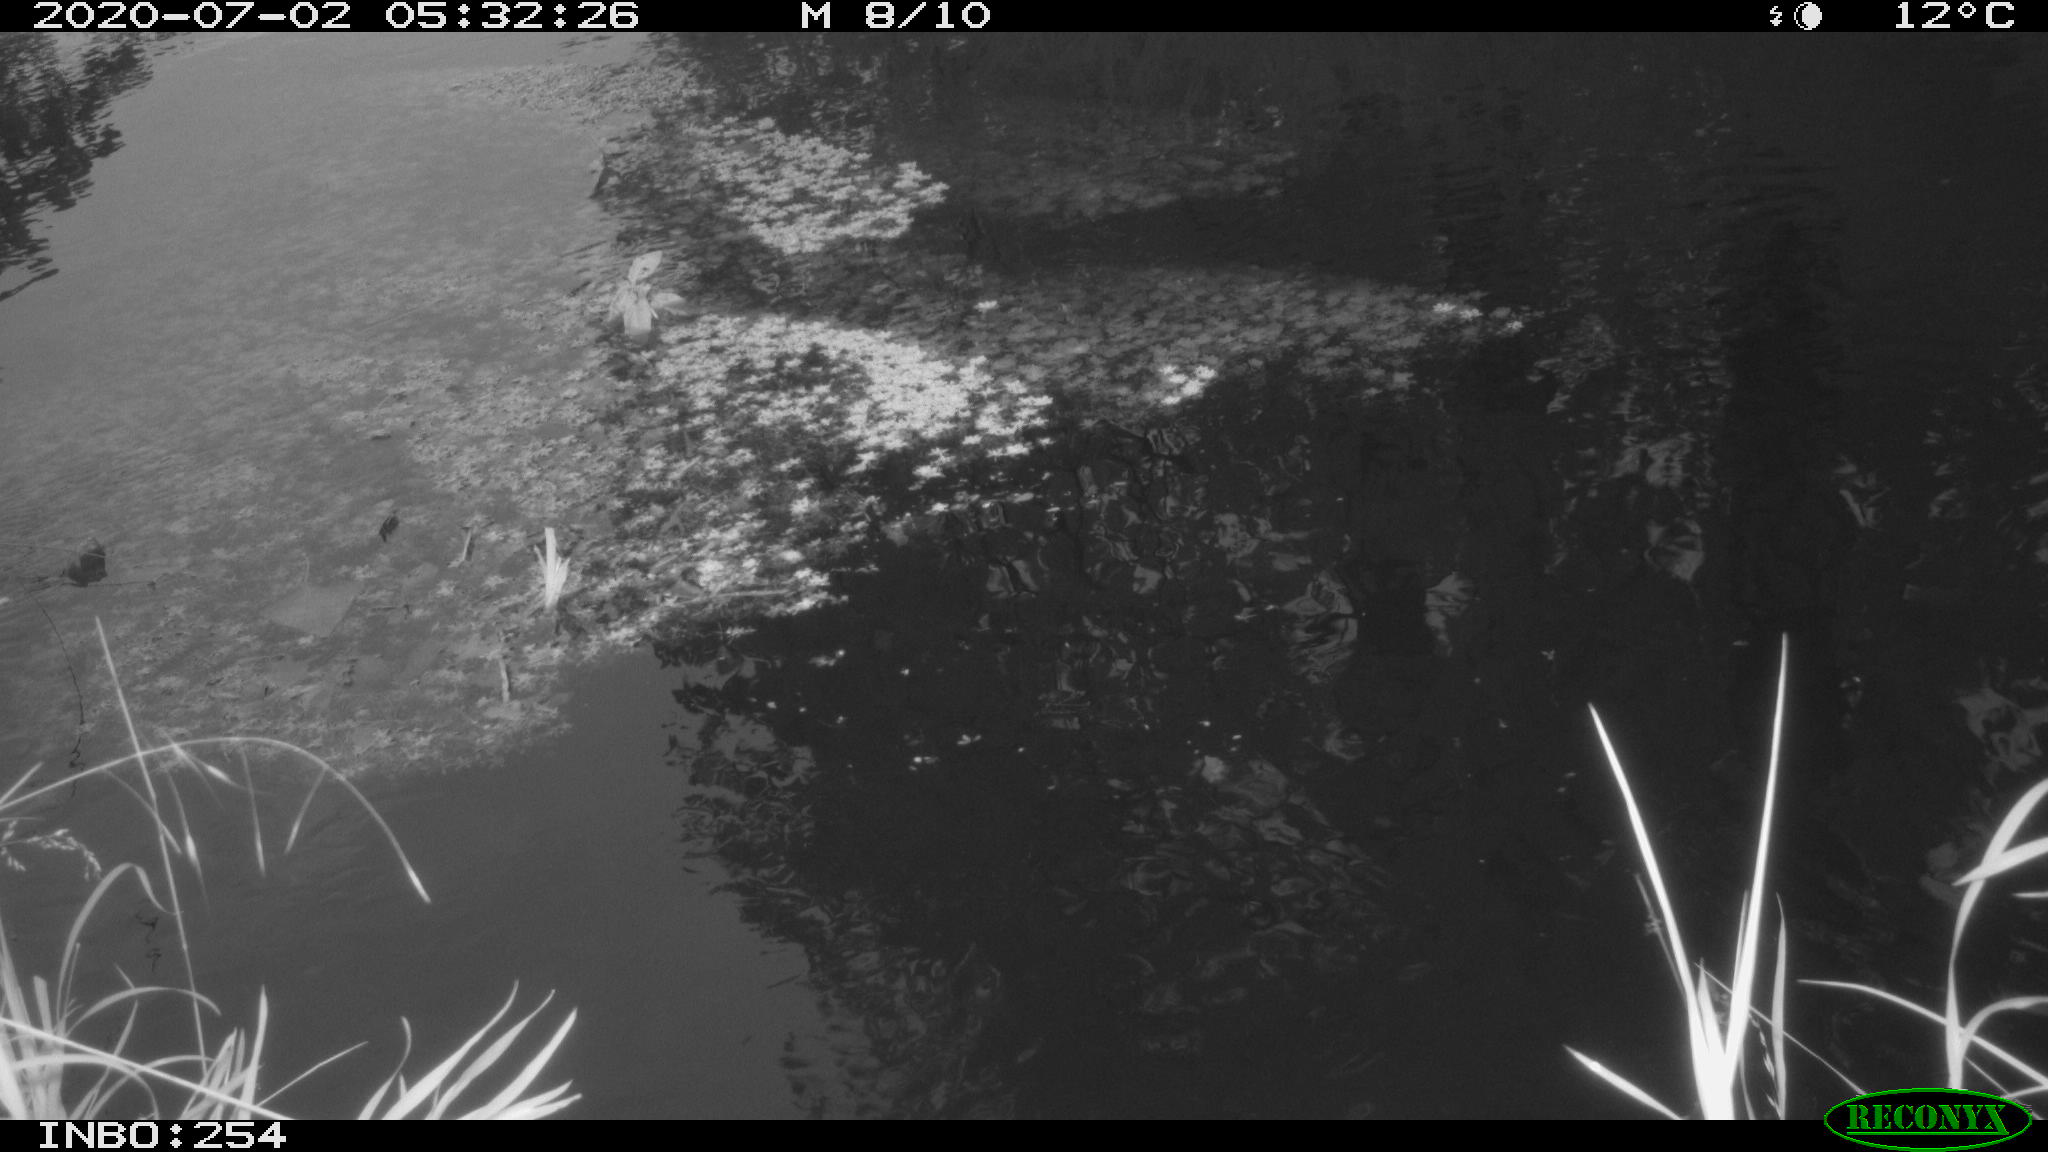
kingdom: Animalia
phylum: Chordata
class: Aves
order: Gruiformes
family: Rallidae
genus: Gallinula
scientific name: Gallinula chloropus
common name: Common moorhen
